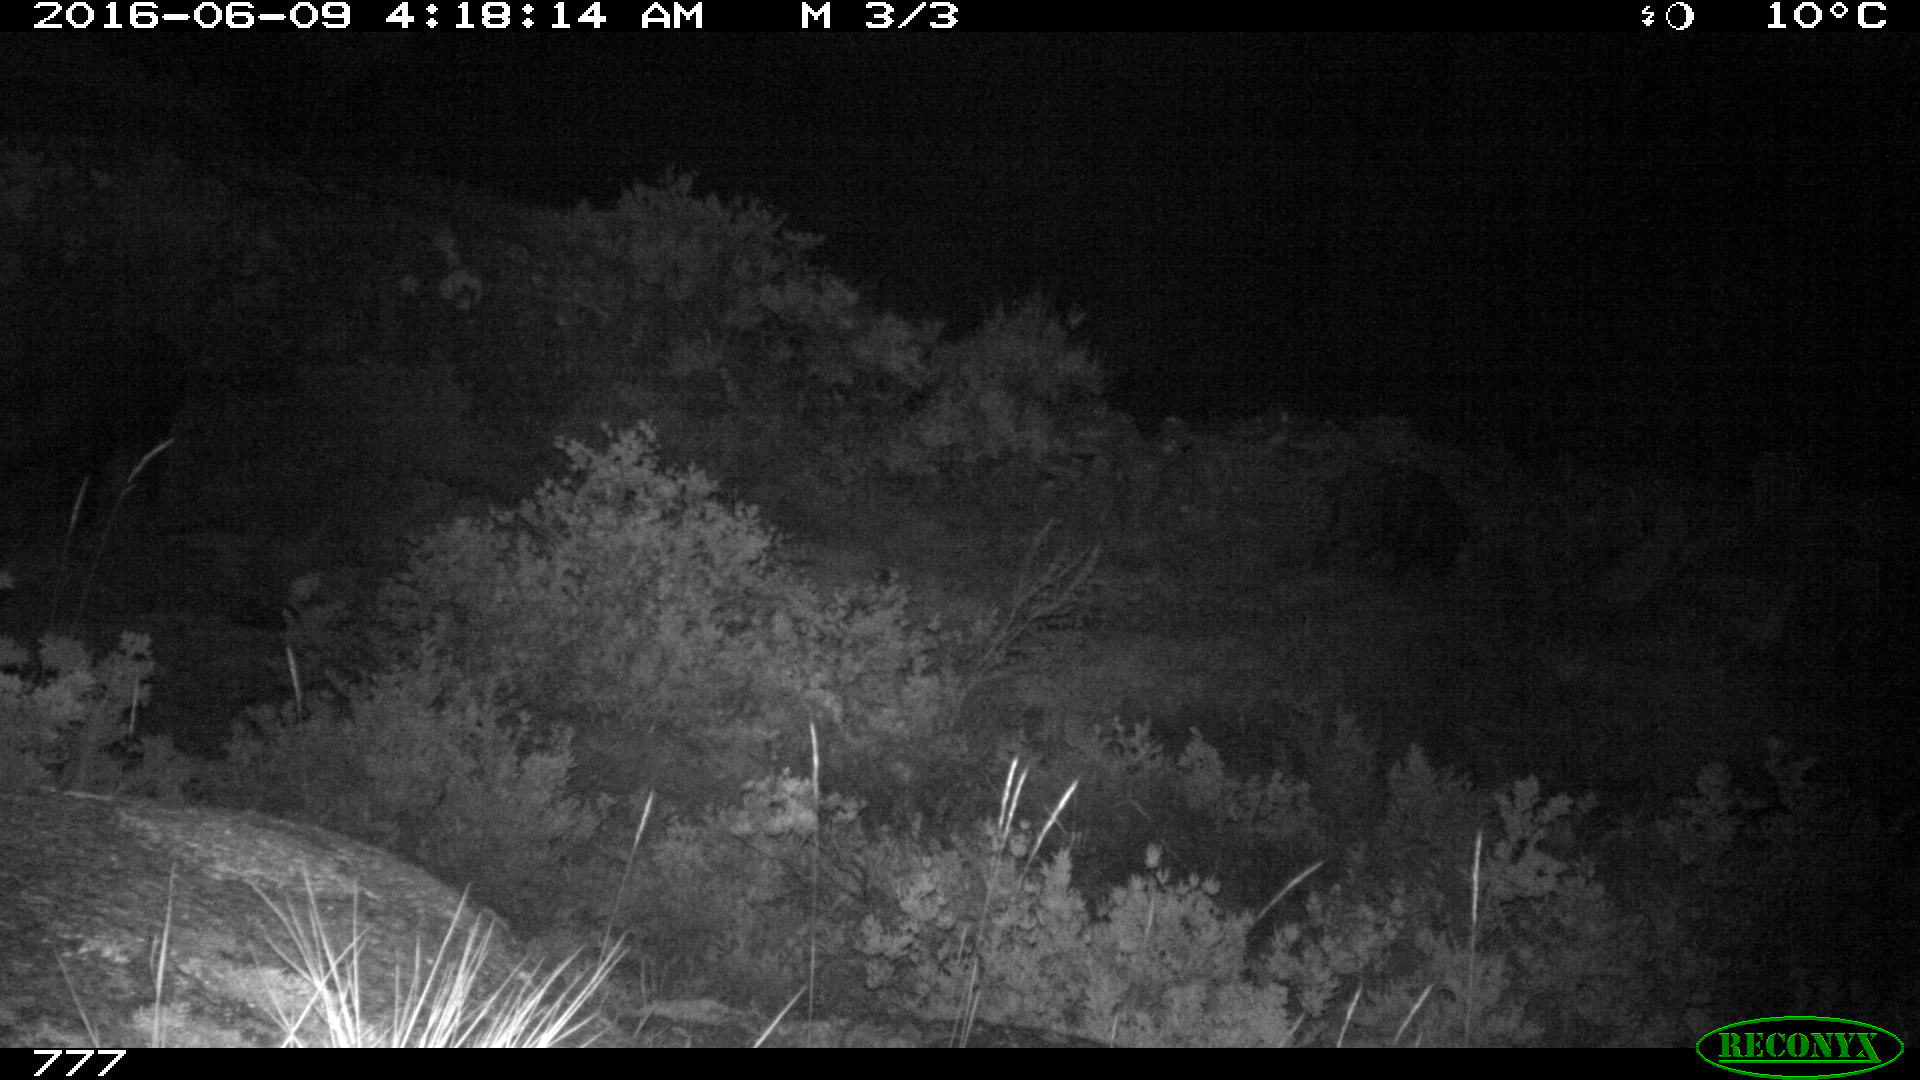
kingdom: Animalia
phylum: Chordata
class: Mammalia
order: Artiodactyla
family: Suidae
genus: Sus
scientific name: Sus scrofa
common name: Wild boar
